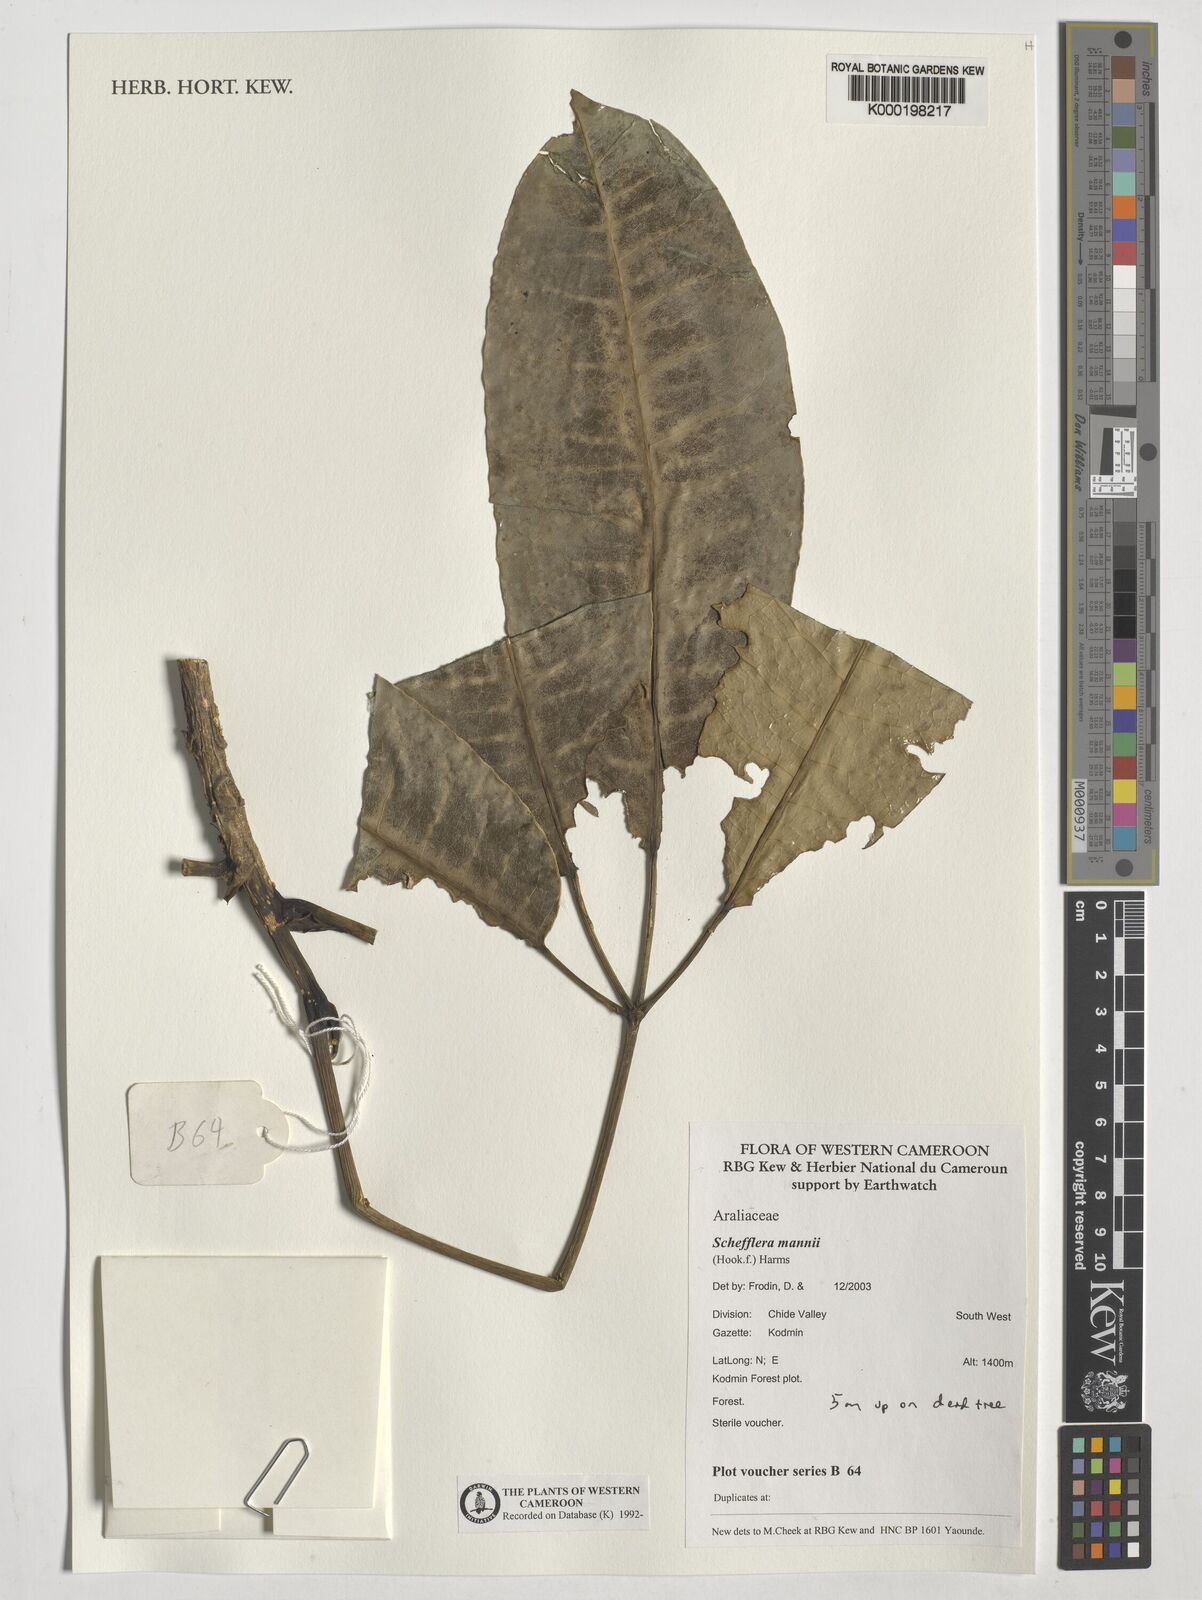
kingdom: Plantae
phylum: Tracheophyta
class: Magnoliopsida
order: Apiales
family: Araliaceae
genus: Astropanax
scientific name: Astropanax mannii
